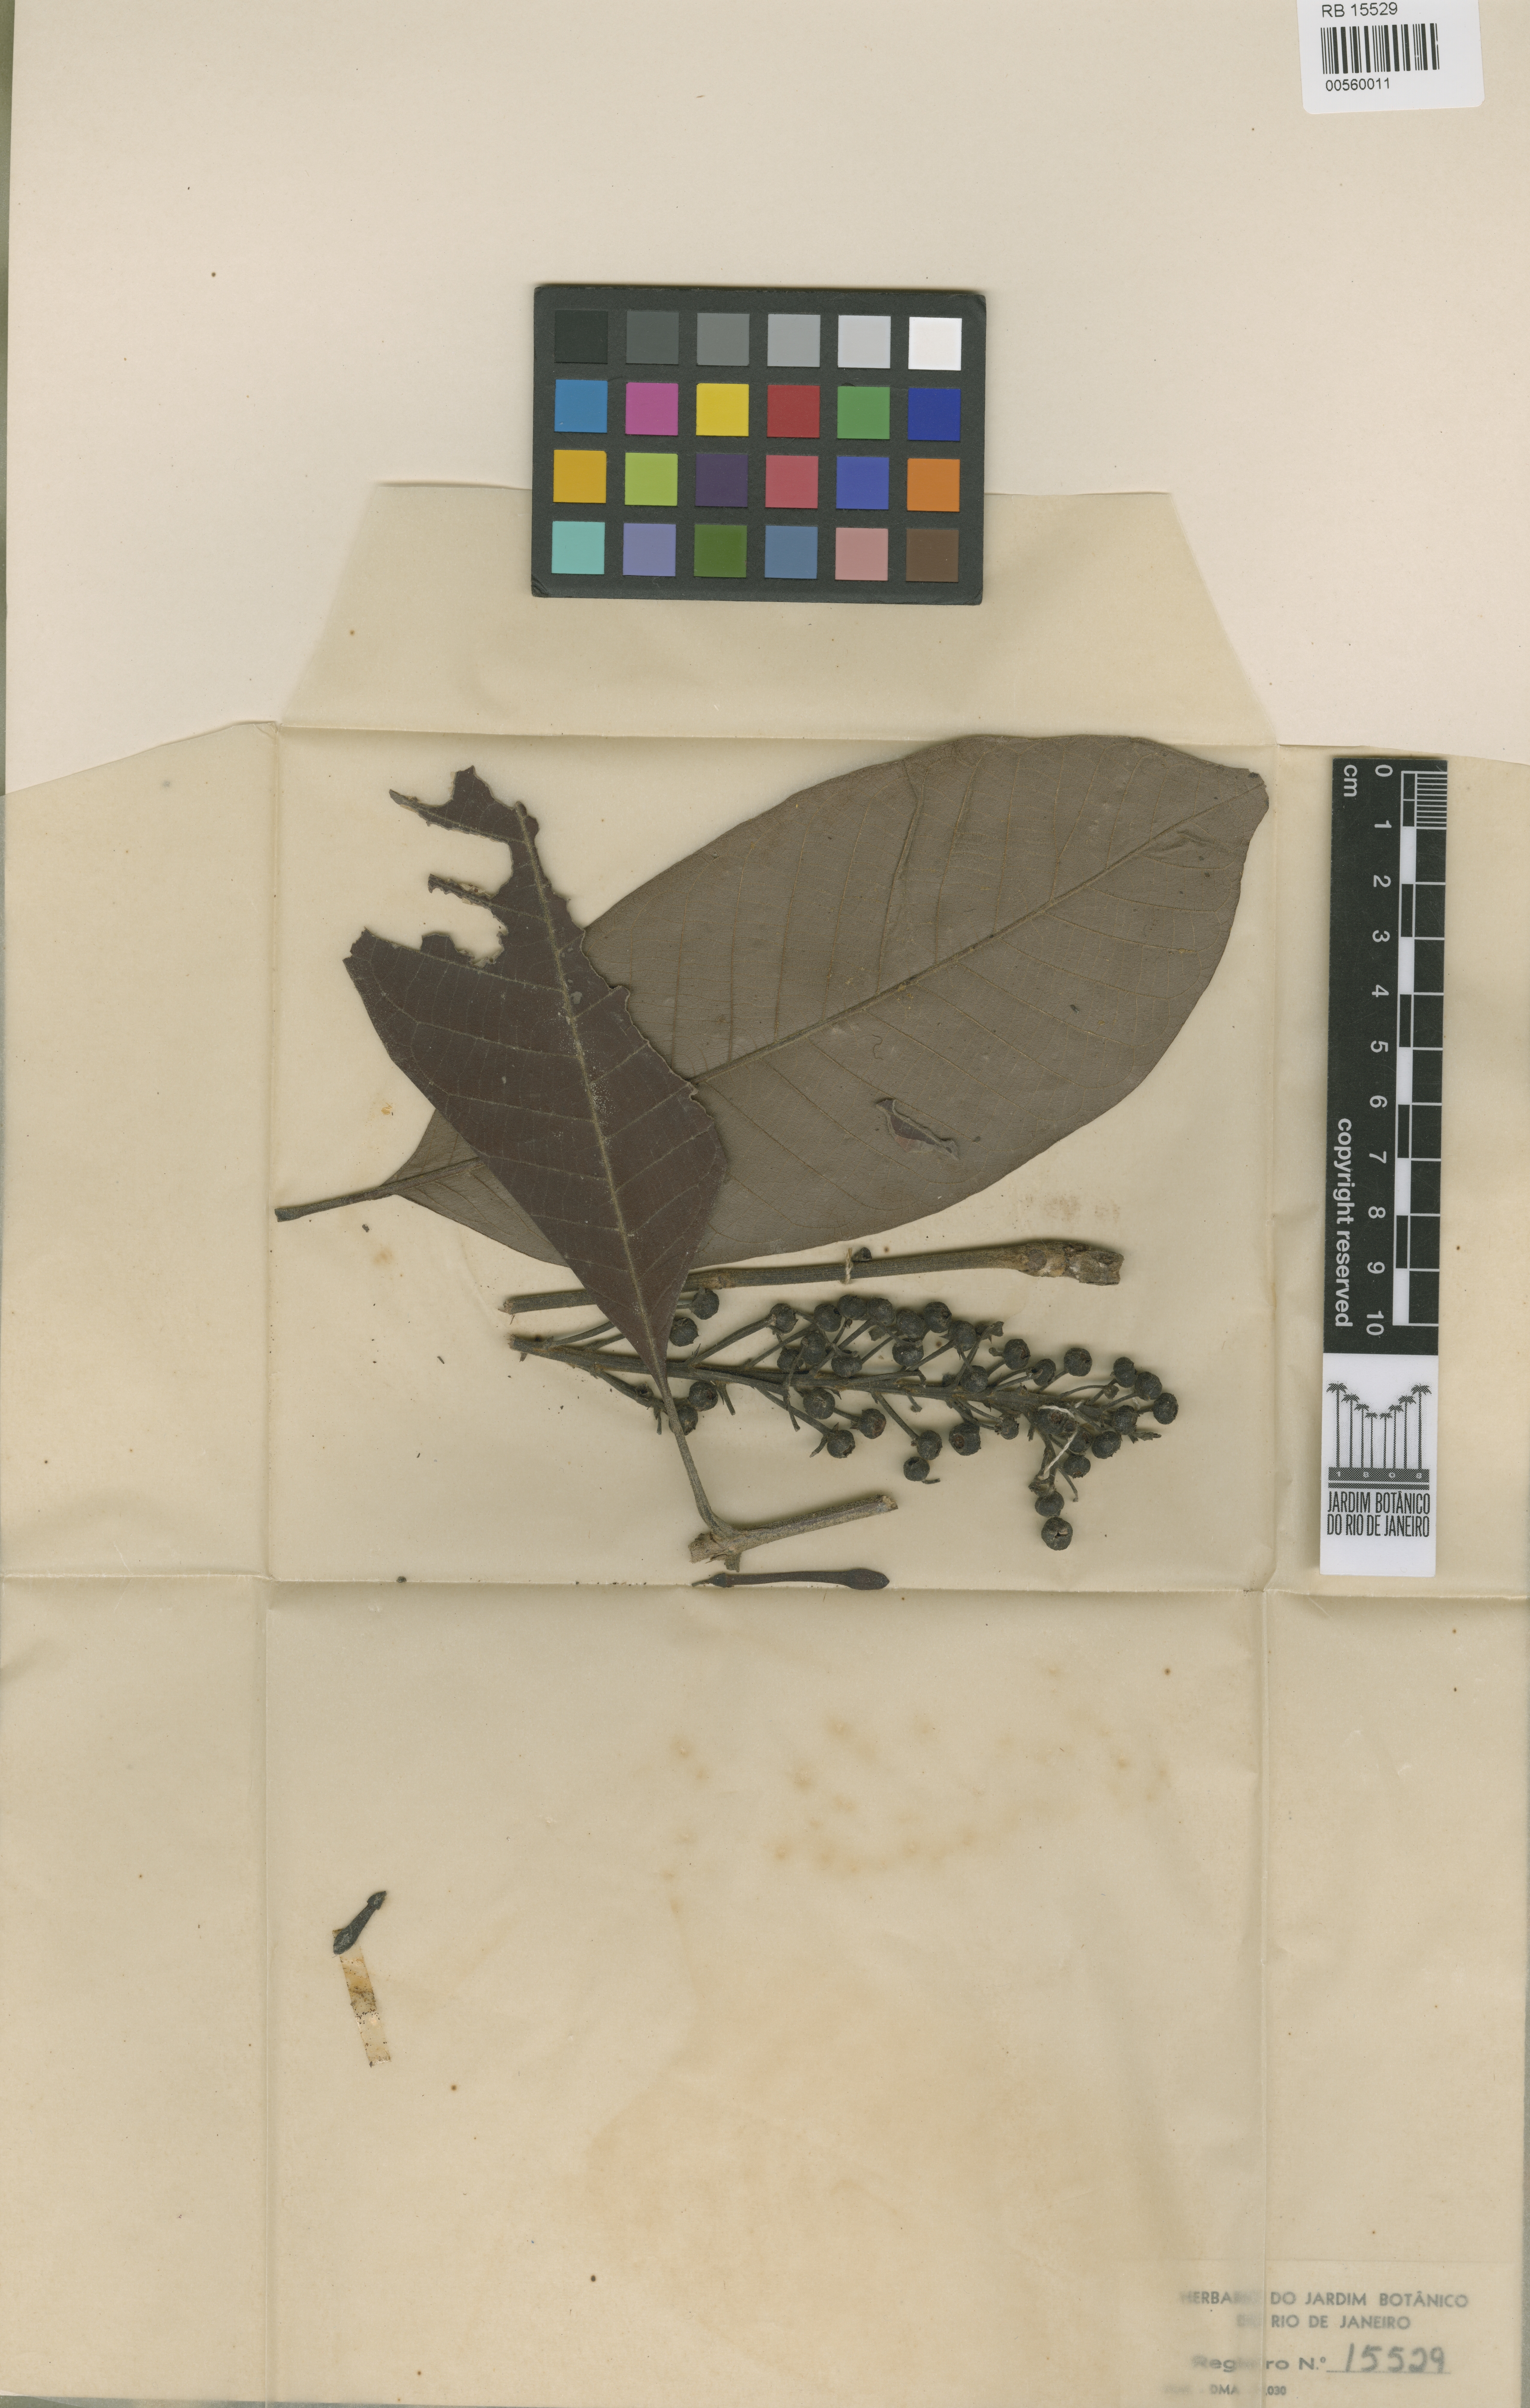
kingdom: Plantae
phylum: Tracheophyta
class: Magnoliopsida
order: Gentianales
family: Rubiaceae
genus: Isertia
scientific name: Isertia spiciformis
